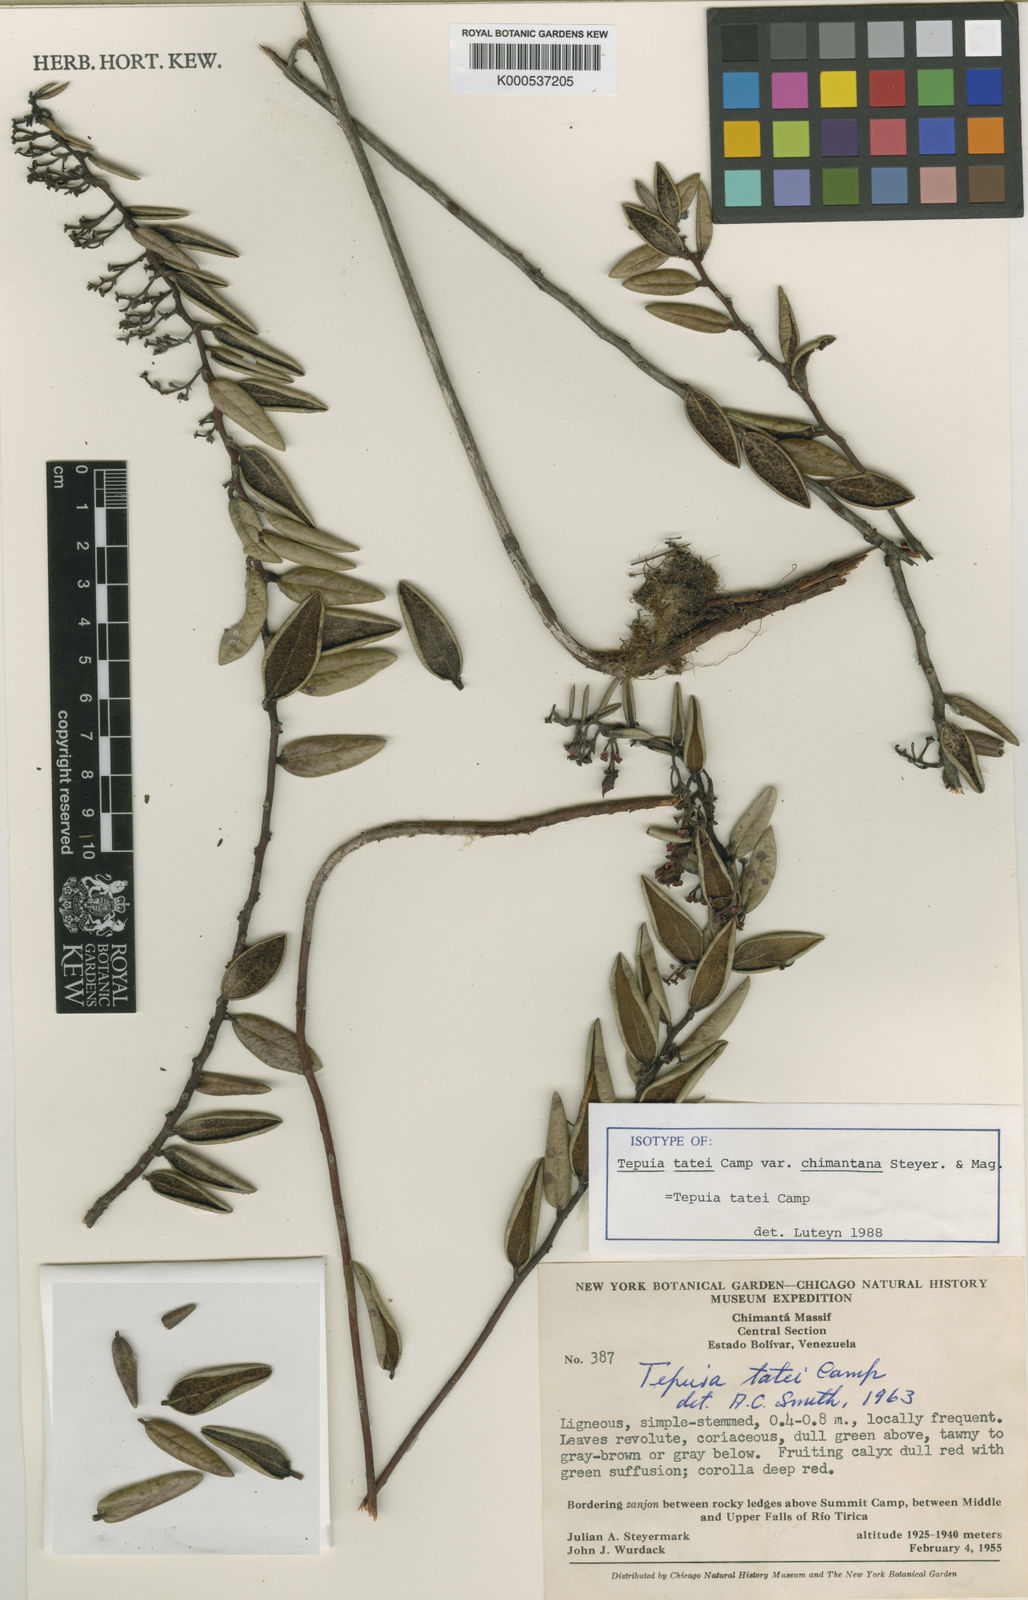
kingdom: Plantae
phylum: Tracheophyta
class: Magnoliopsida
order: Ericales
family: Ericaceae
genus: Gaultheria
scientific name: Gaultheria campii
